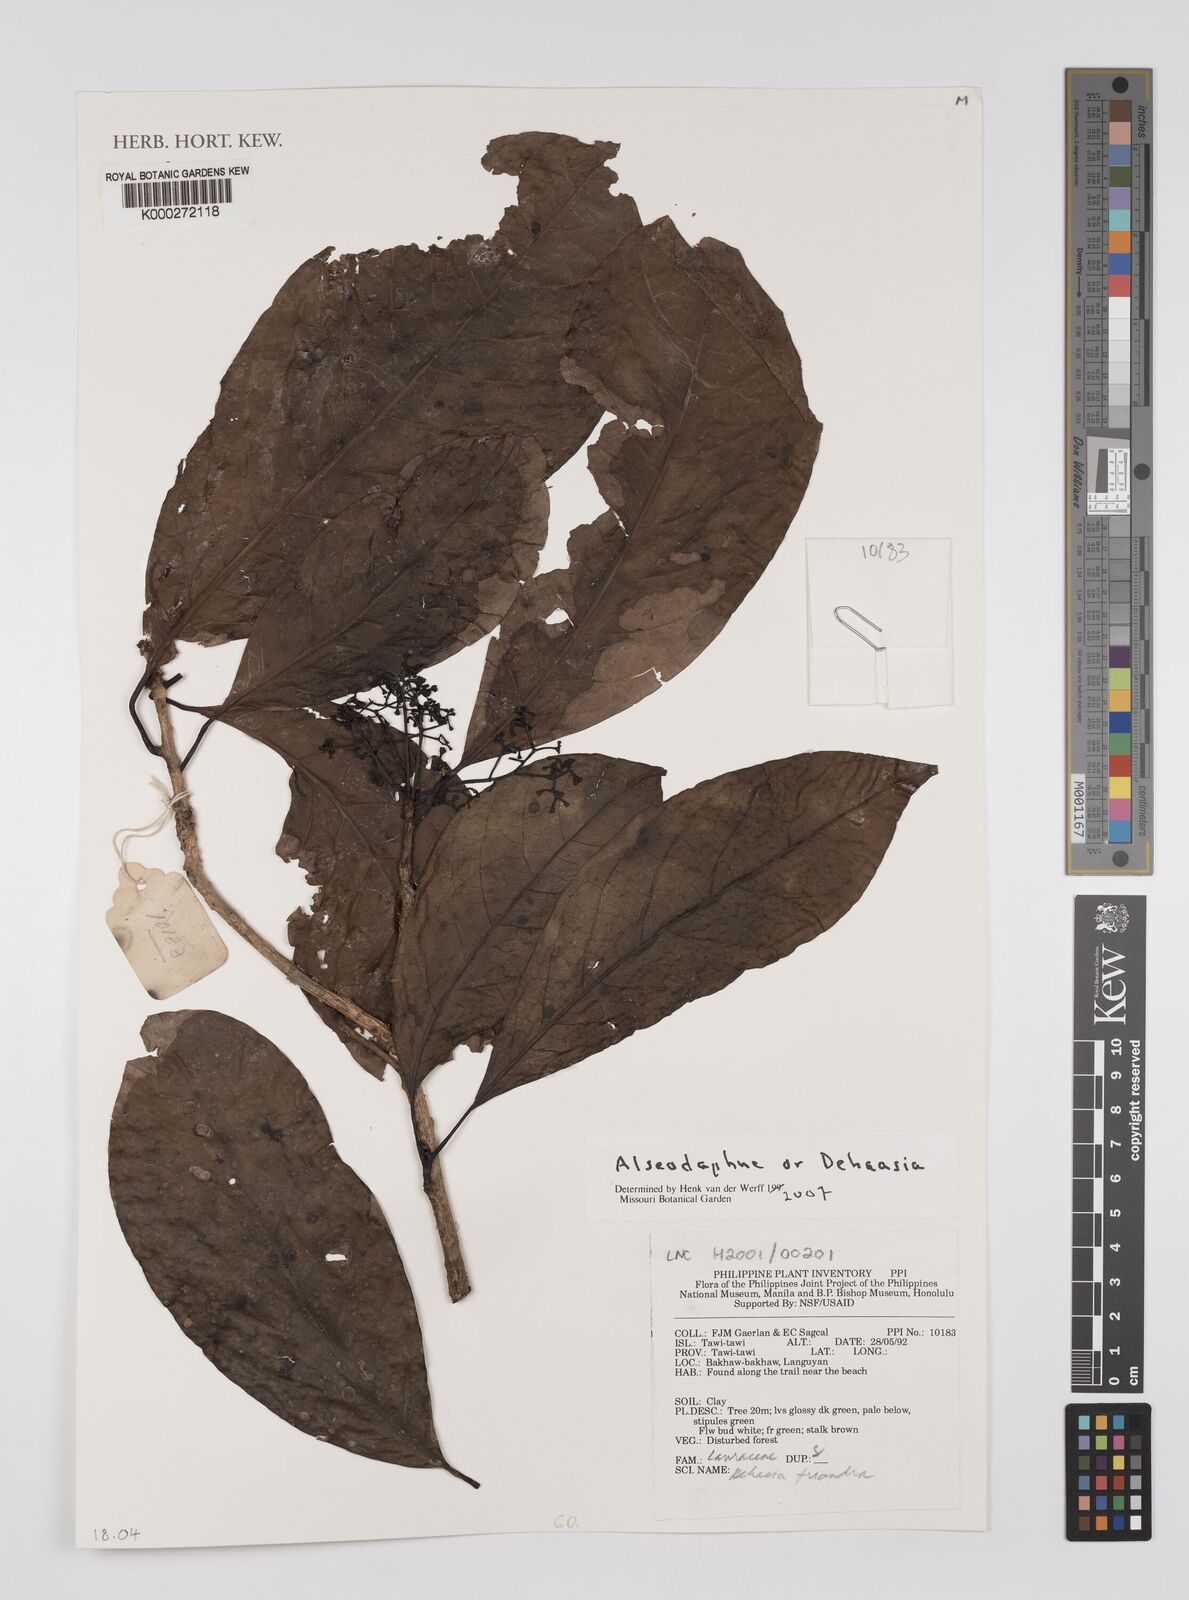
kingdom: Plantae
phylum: Tracheophyta
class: Magnoliopsida
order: Laurales
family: Lauraceae
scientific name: Lauraceae
